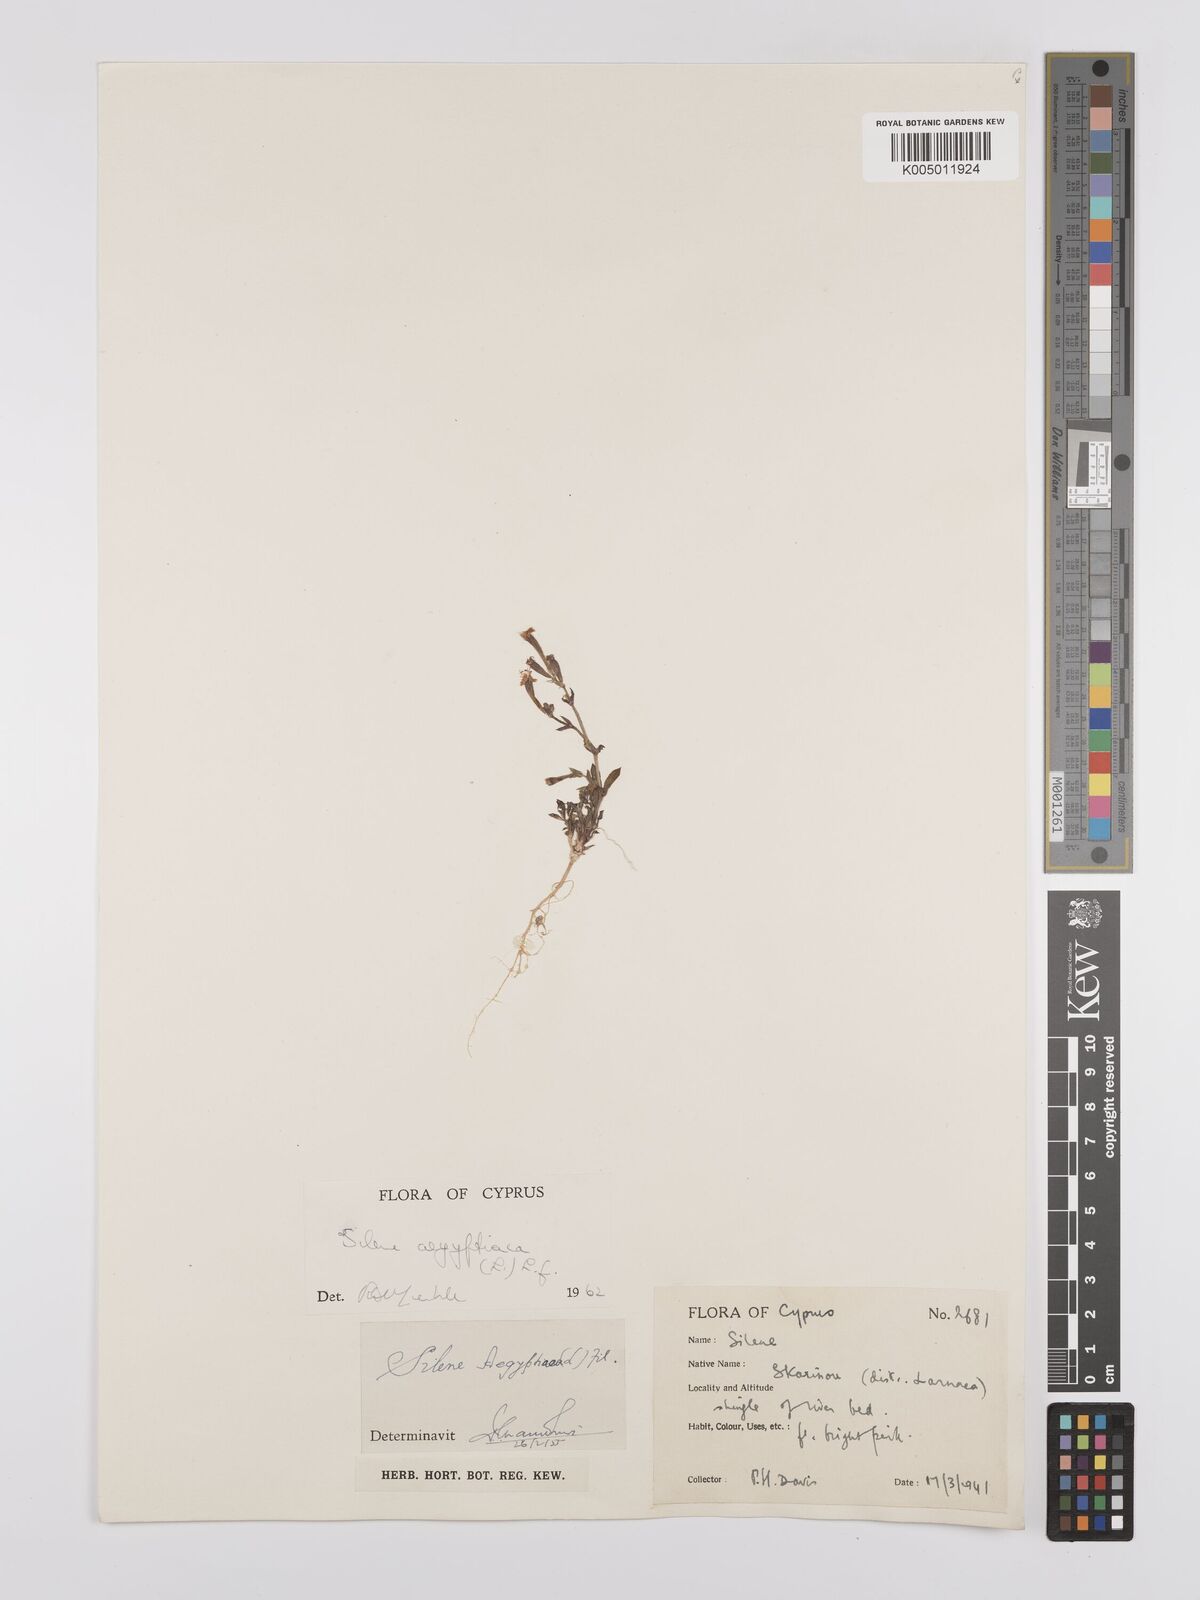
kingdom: Plantae
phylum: Tracheophyta
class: Magnoliopsida
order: Caryophyllales
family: Caryophyllaceae
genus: Silene
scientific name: Silene aegyptiaca
